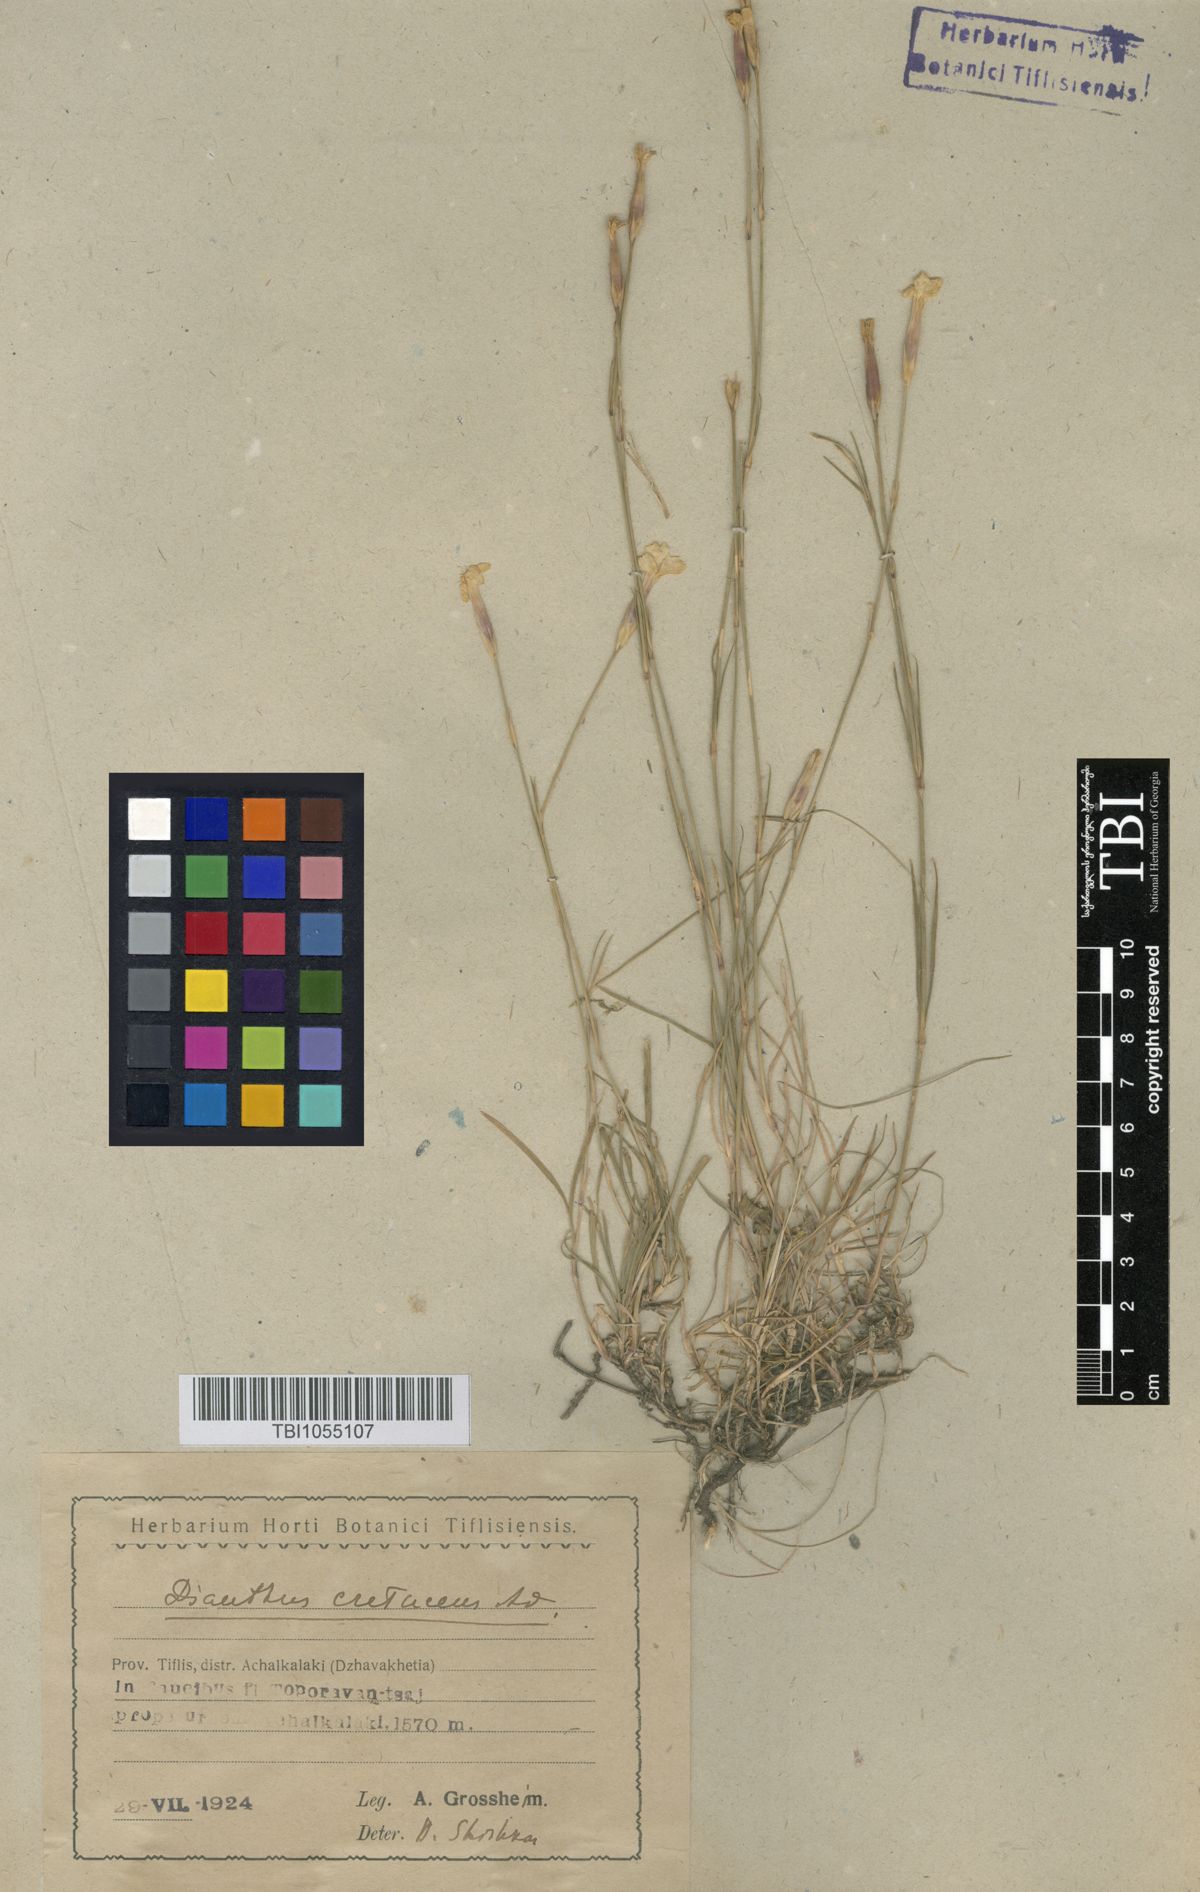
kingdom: Plantae
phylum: Tracheophyta
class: Magnoliopsida
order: Caryophyllales
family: Caryophyllaceae
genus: Dianthus
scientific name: Dianthus cretaceus
